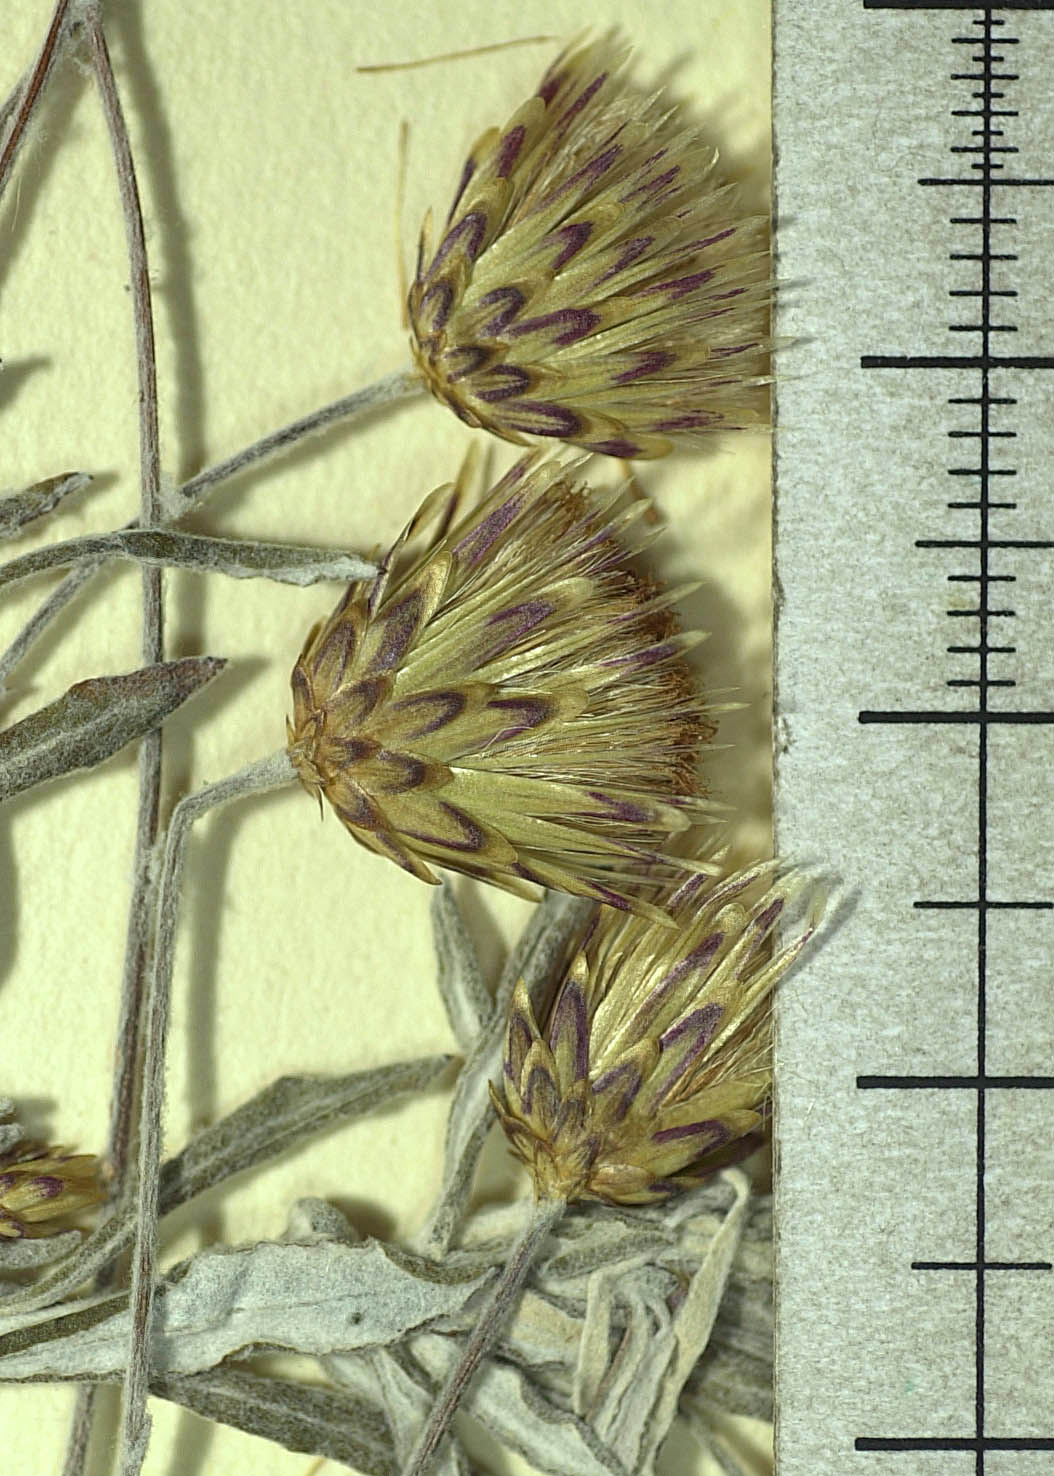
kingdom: Plantae
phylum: Tracheophyta
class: Magnoliopsida
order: Asterales
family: Asteraceae
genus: Phagnalon
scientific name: Phagnalon rupestre
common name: Rock phagnalon
